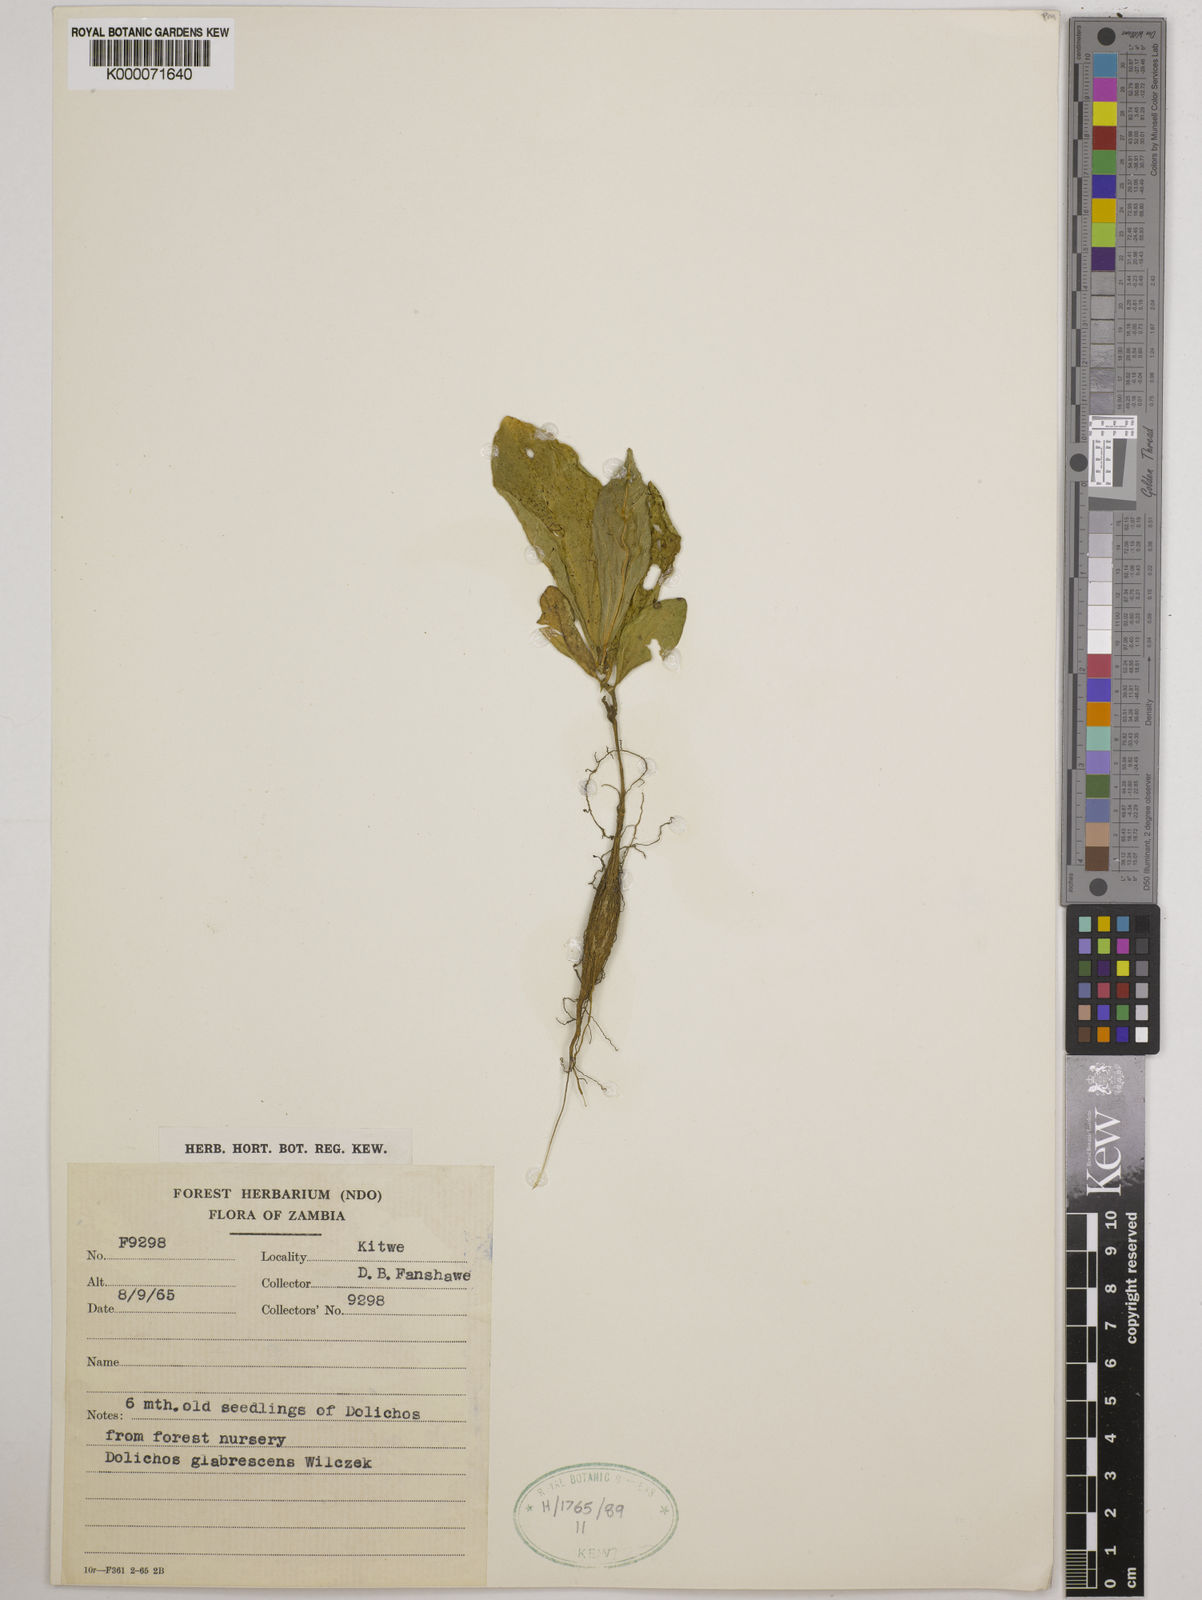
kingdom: Plantae
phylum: Tracheophyta
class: Magnoliopsida
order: Fabales
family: Fabaceae
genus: Dolichos
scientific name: Dolichos
